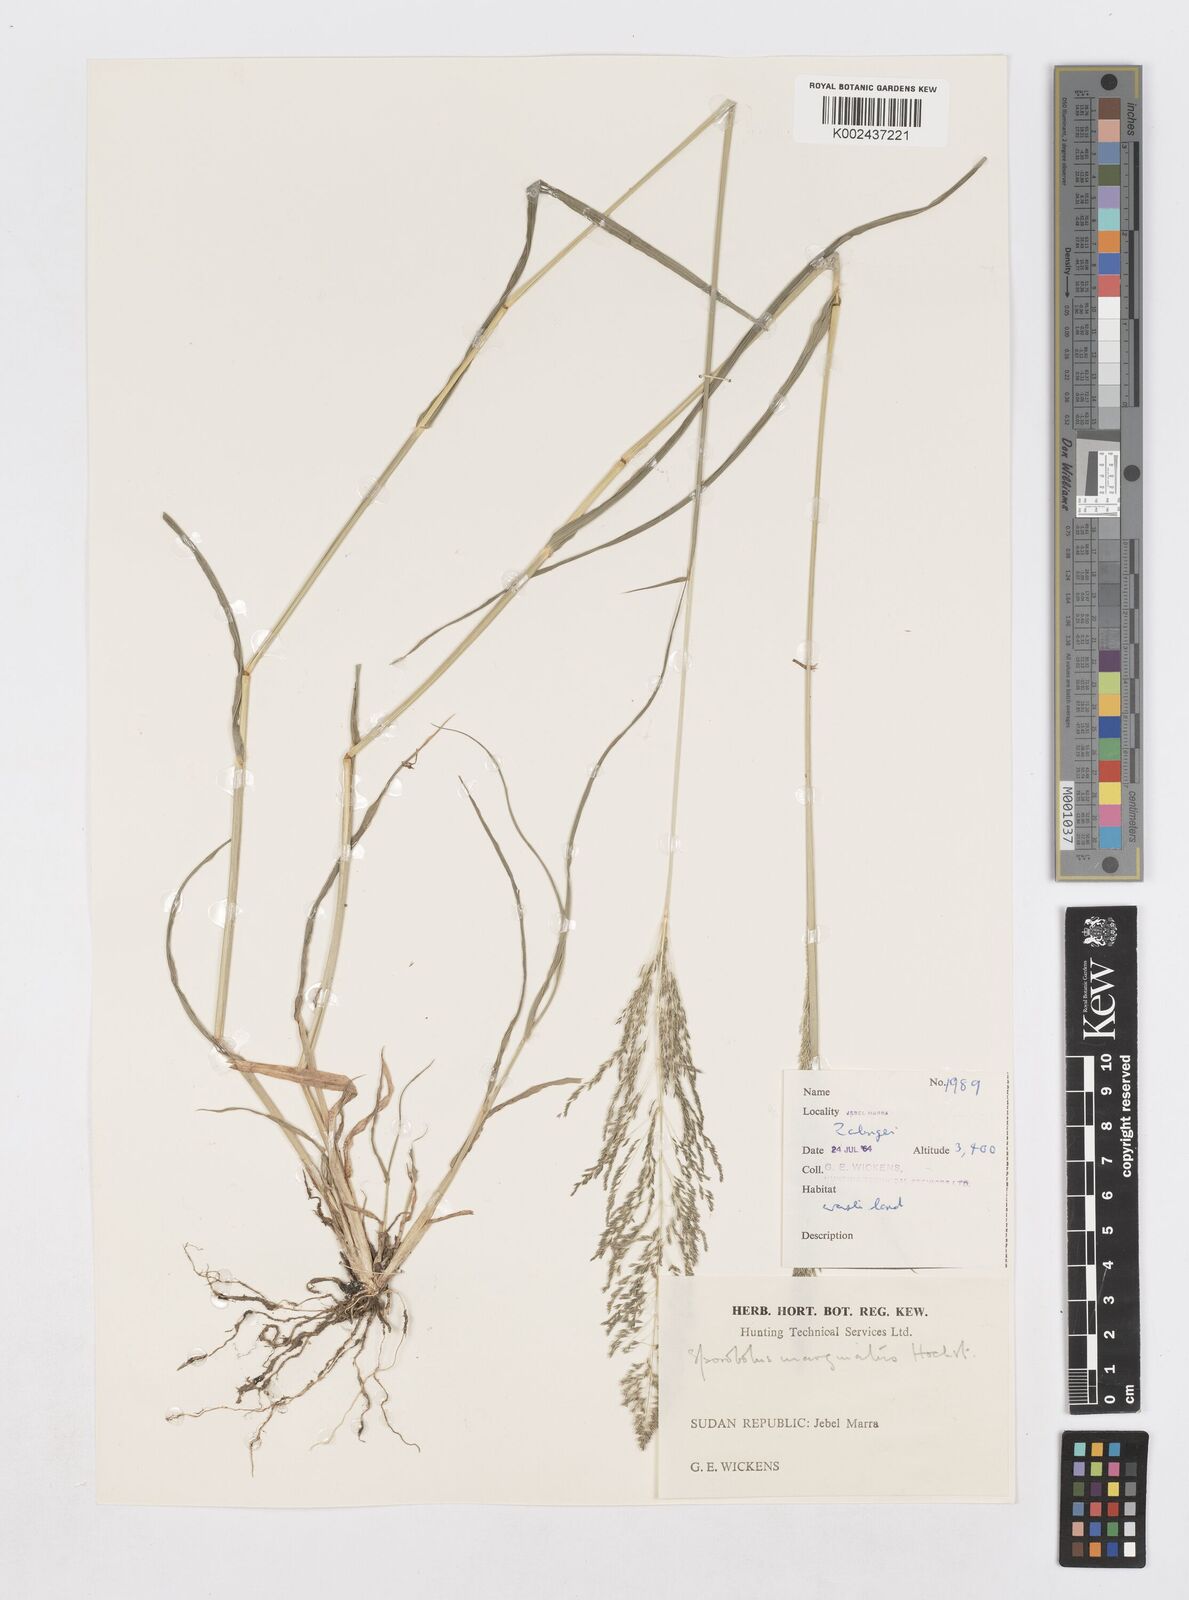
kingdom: Plantae
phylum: Tracheophyta
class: Liliopsida
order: Poales
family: Poaceae
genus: Sporobolus
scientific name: Sporobolus ioclados
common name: Pan dropseed
